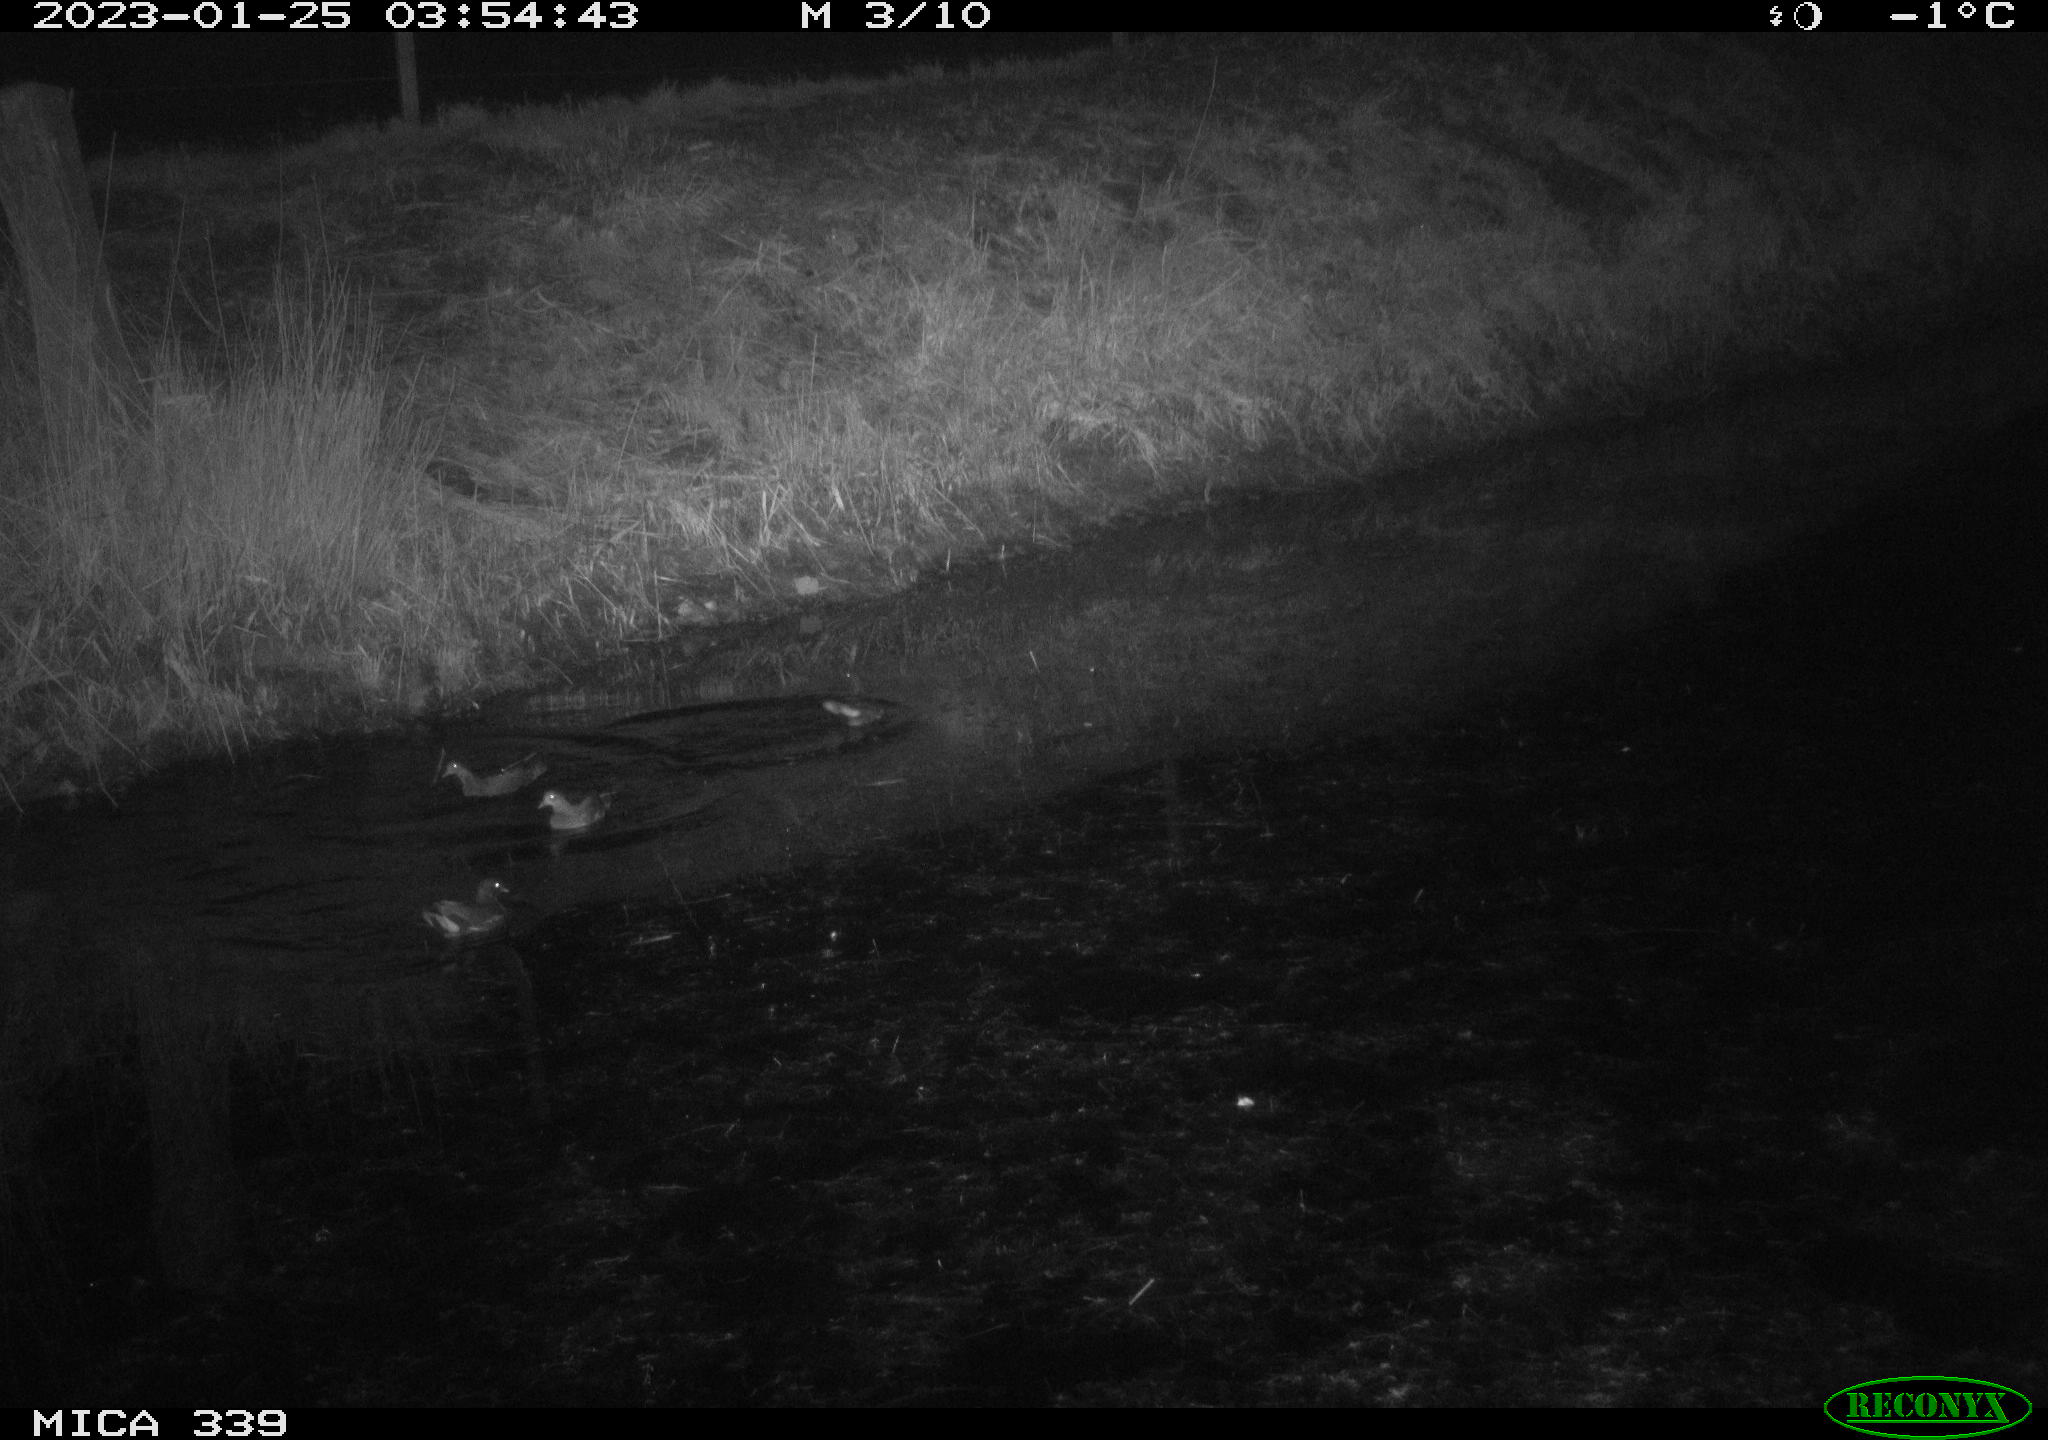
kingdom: Animalia
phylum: Chordata
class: Aves
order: Gruiformes
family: Rallidae
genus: Gallinula
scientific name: Gallinula chloropus
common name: Common moorhen
